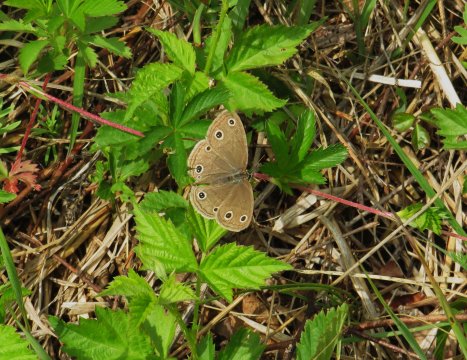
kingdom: Animalia
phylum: Arthropoda
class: Insecta
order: Lepidoptera
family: Nymphalidae
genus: Euptychia
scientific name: Euptychia cymela
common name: Little Wood Satyr
